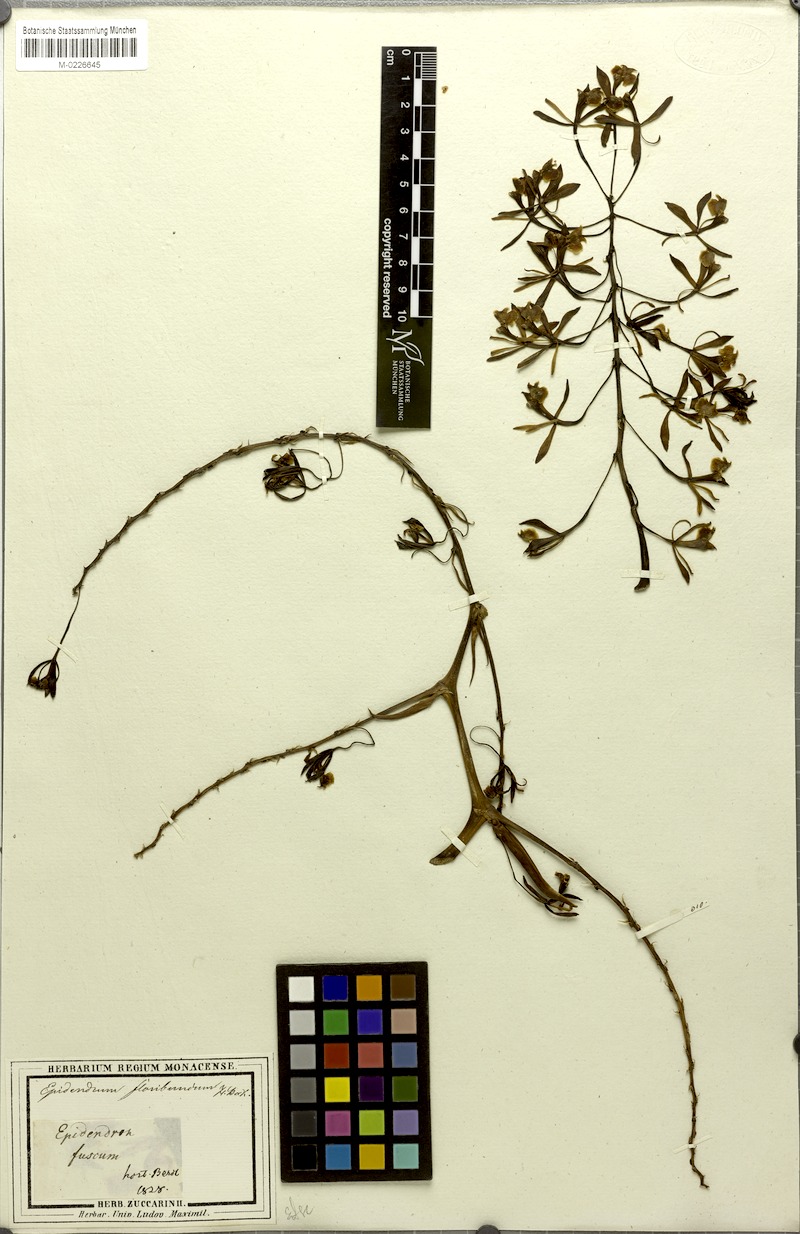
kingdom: Plantae
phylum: Tracheophyta
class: Liliopsida
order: Asparagales
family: Orchidaceae
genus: Epidendrum
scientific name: Epidendrum paniculatum
